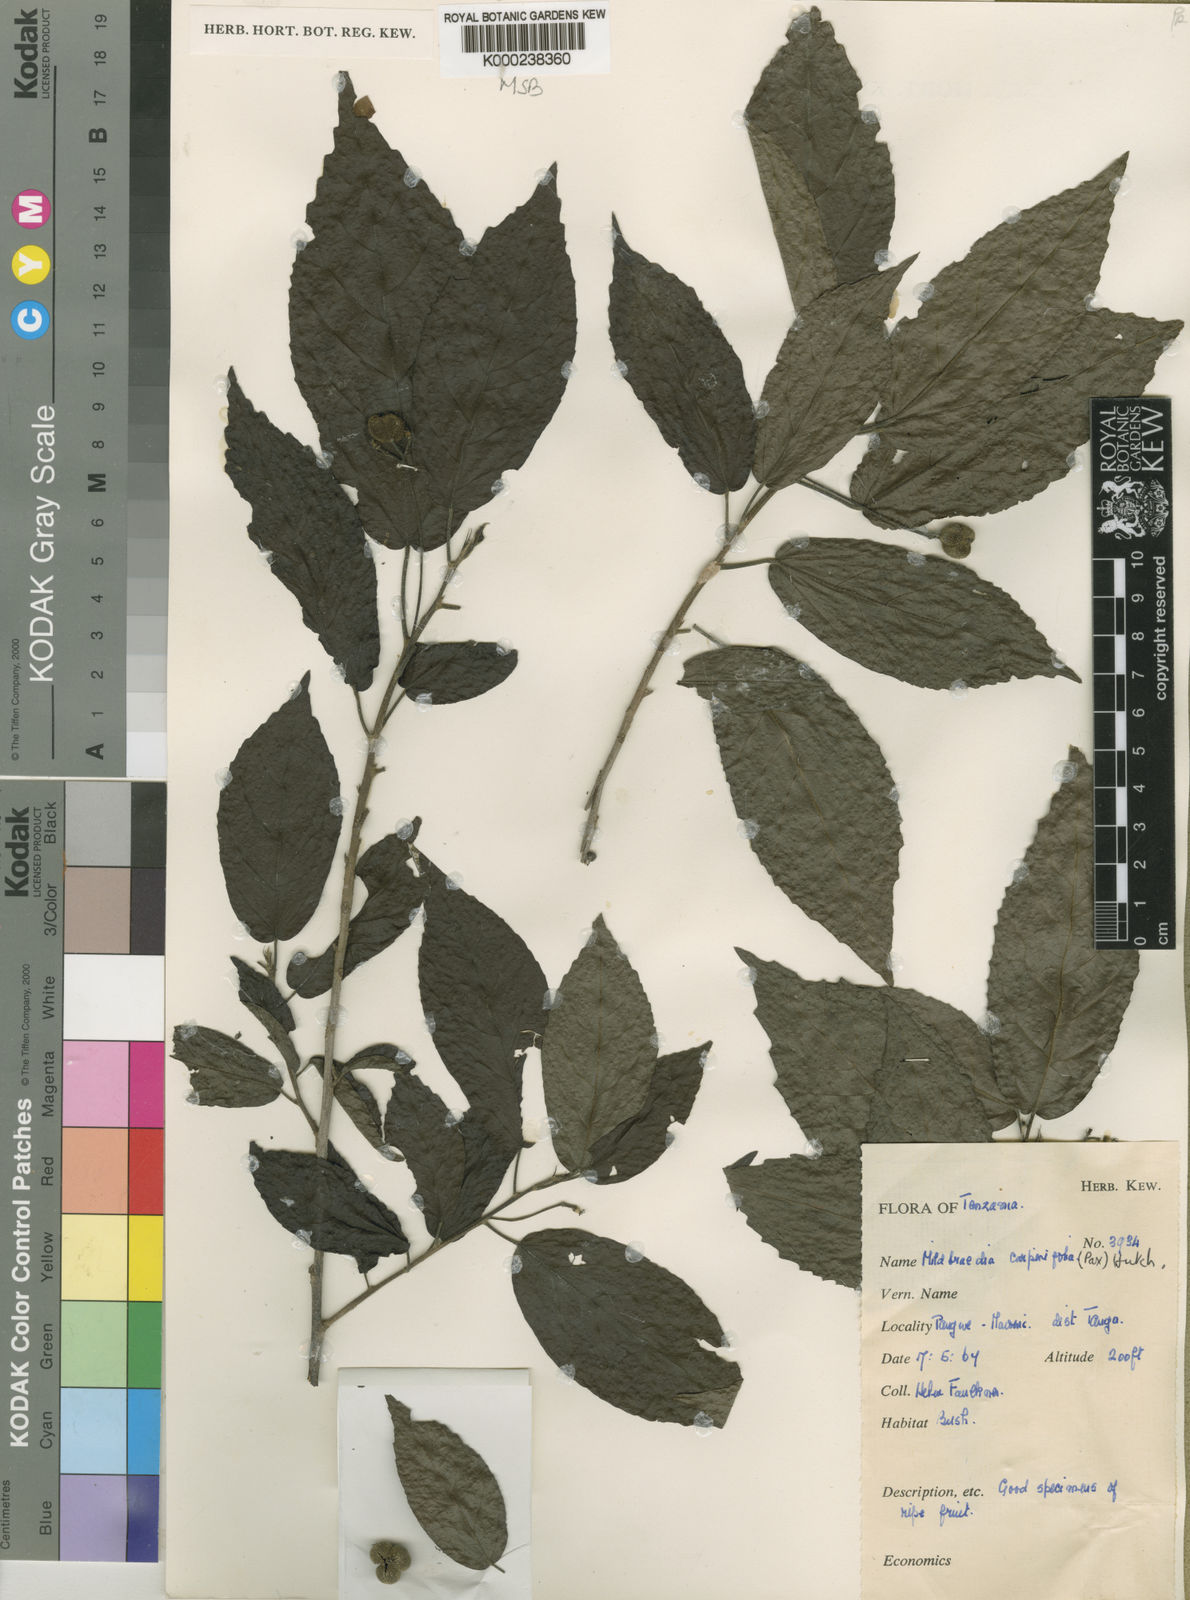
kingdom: Plantae
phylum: Tracheophyta
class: Magnoliopsida
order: Malpighiales
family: Euphorbiaceae
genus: Mildbraedia
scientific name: Mildbraedia carpinifolia
